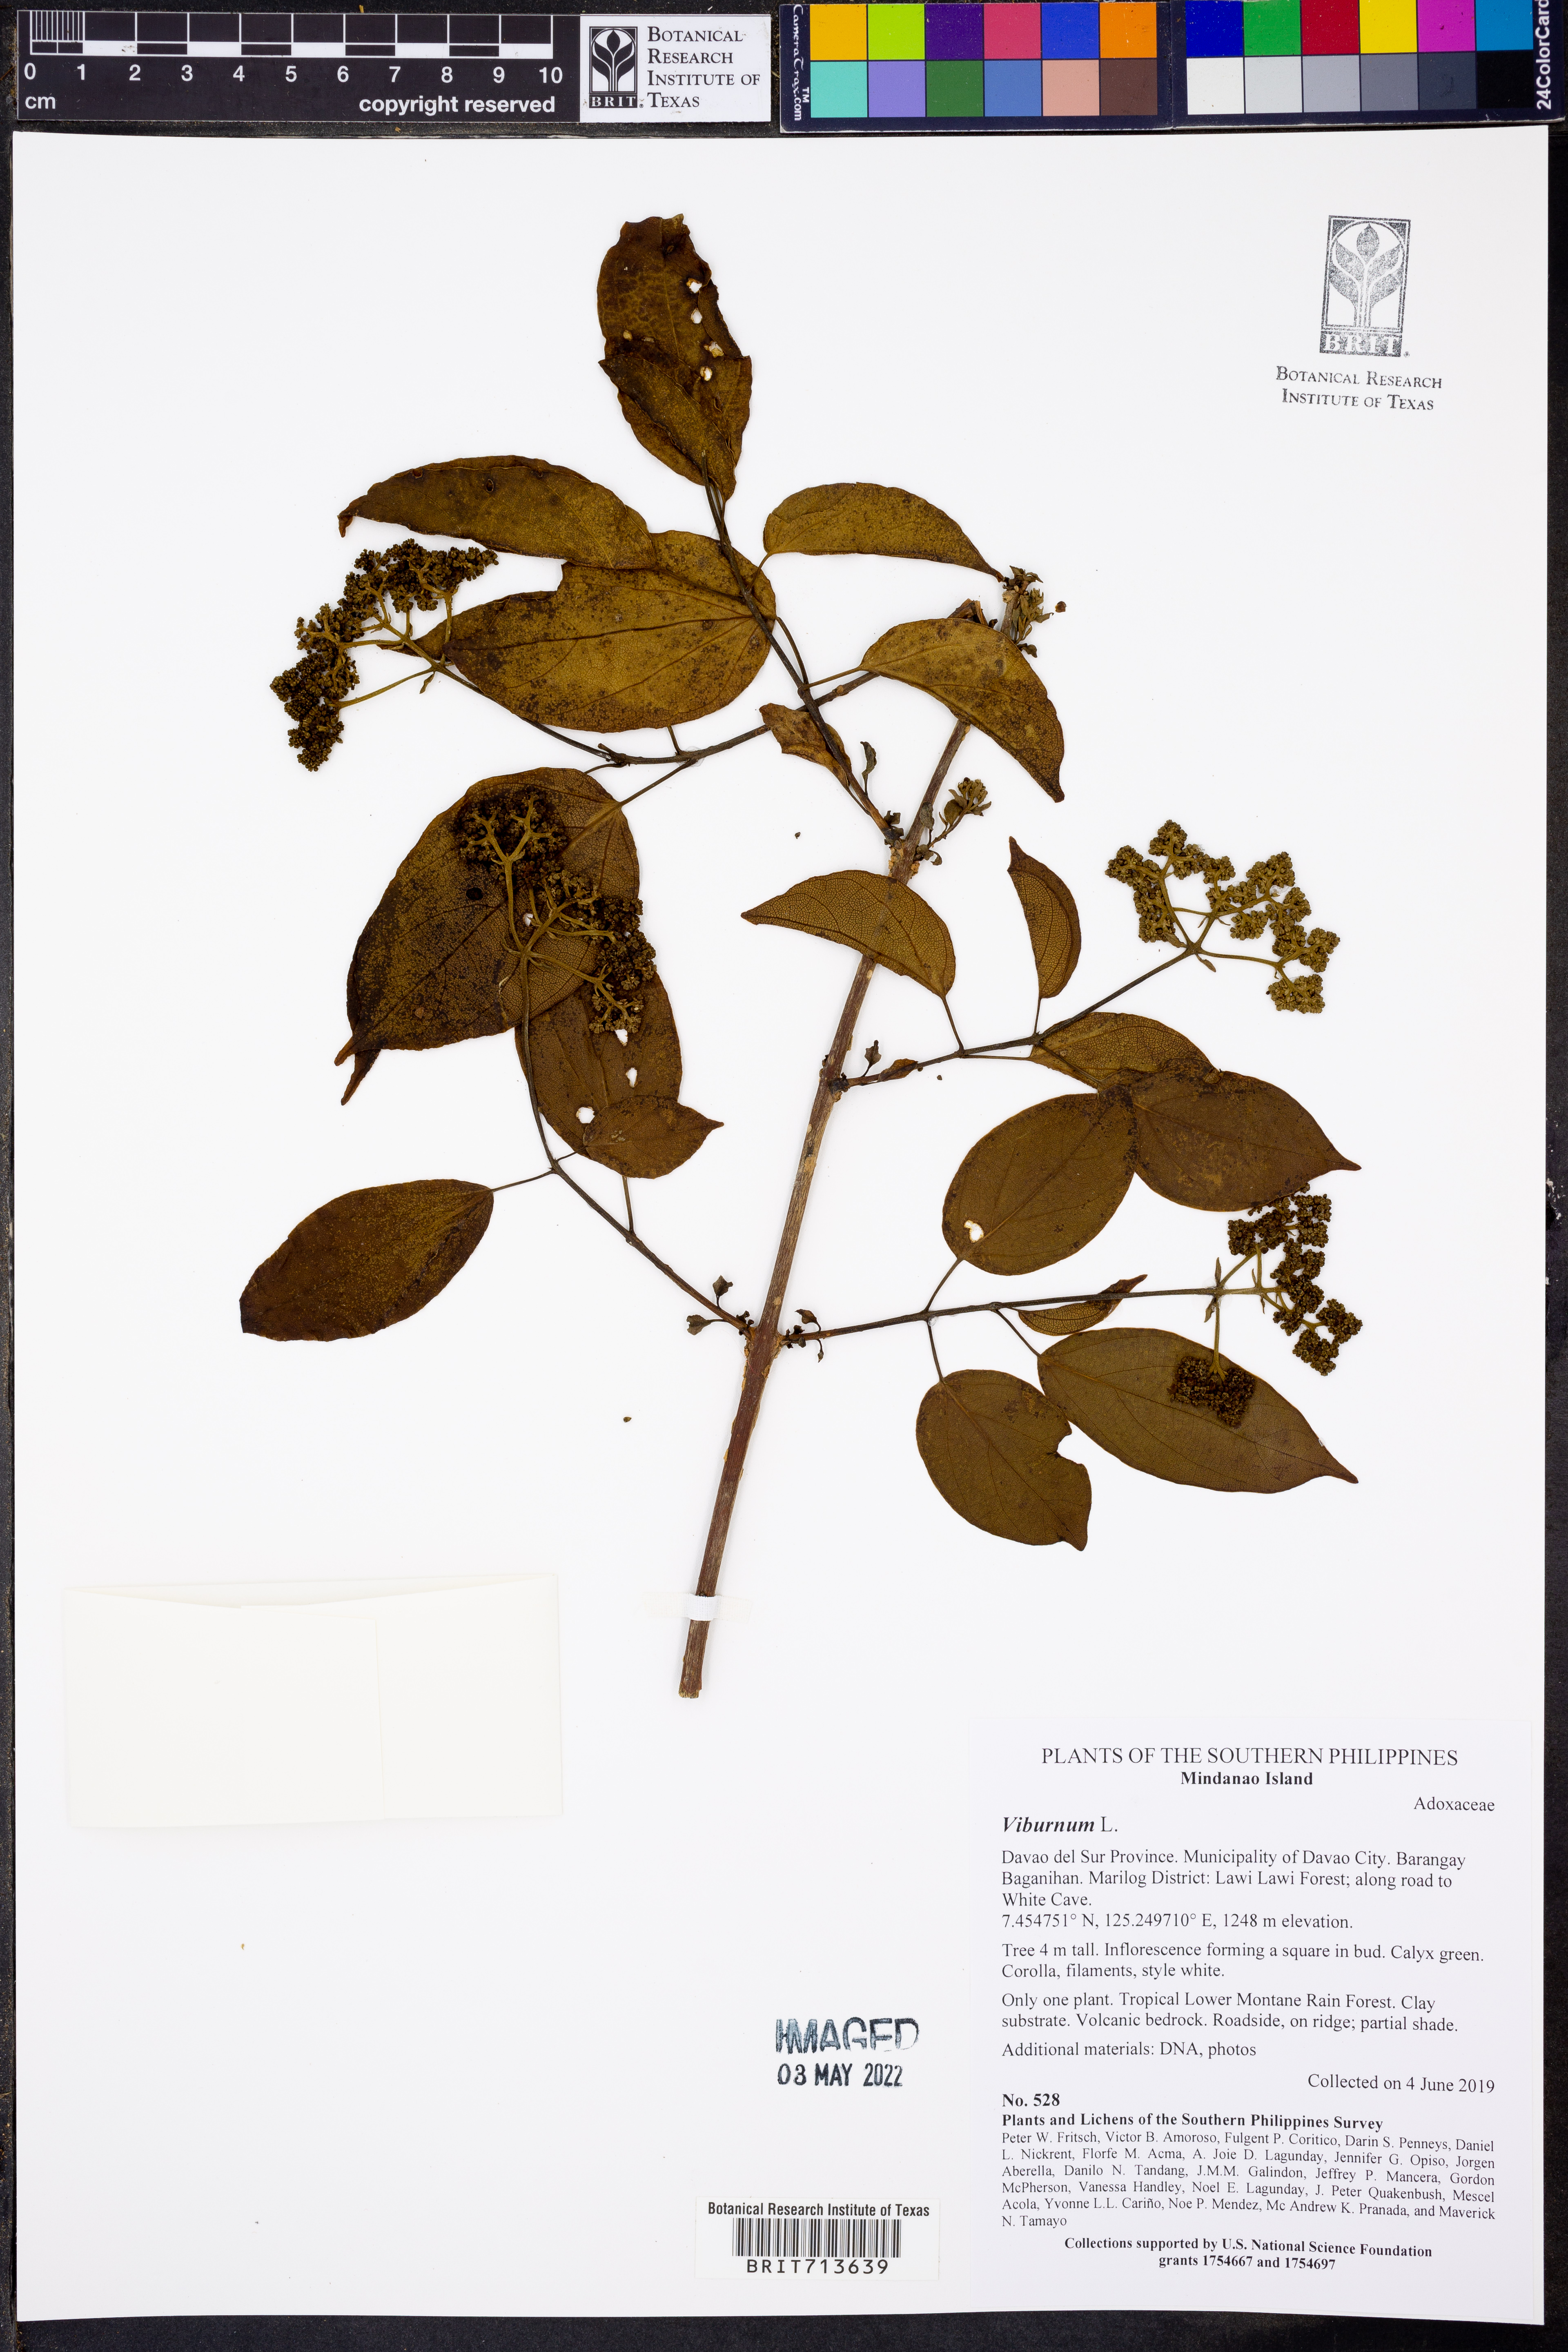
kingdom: Plantae
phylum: Tracheophyta
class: Magnoliopsida
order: Dipsacales
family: Viburnaceae
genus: Viburnum
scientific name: Viburnum
